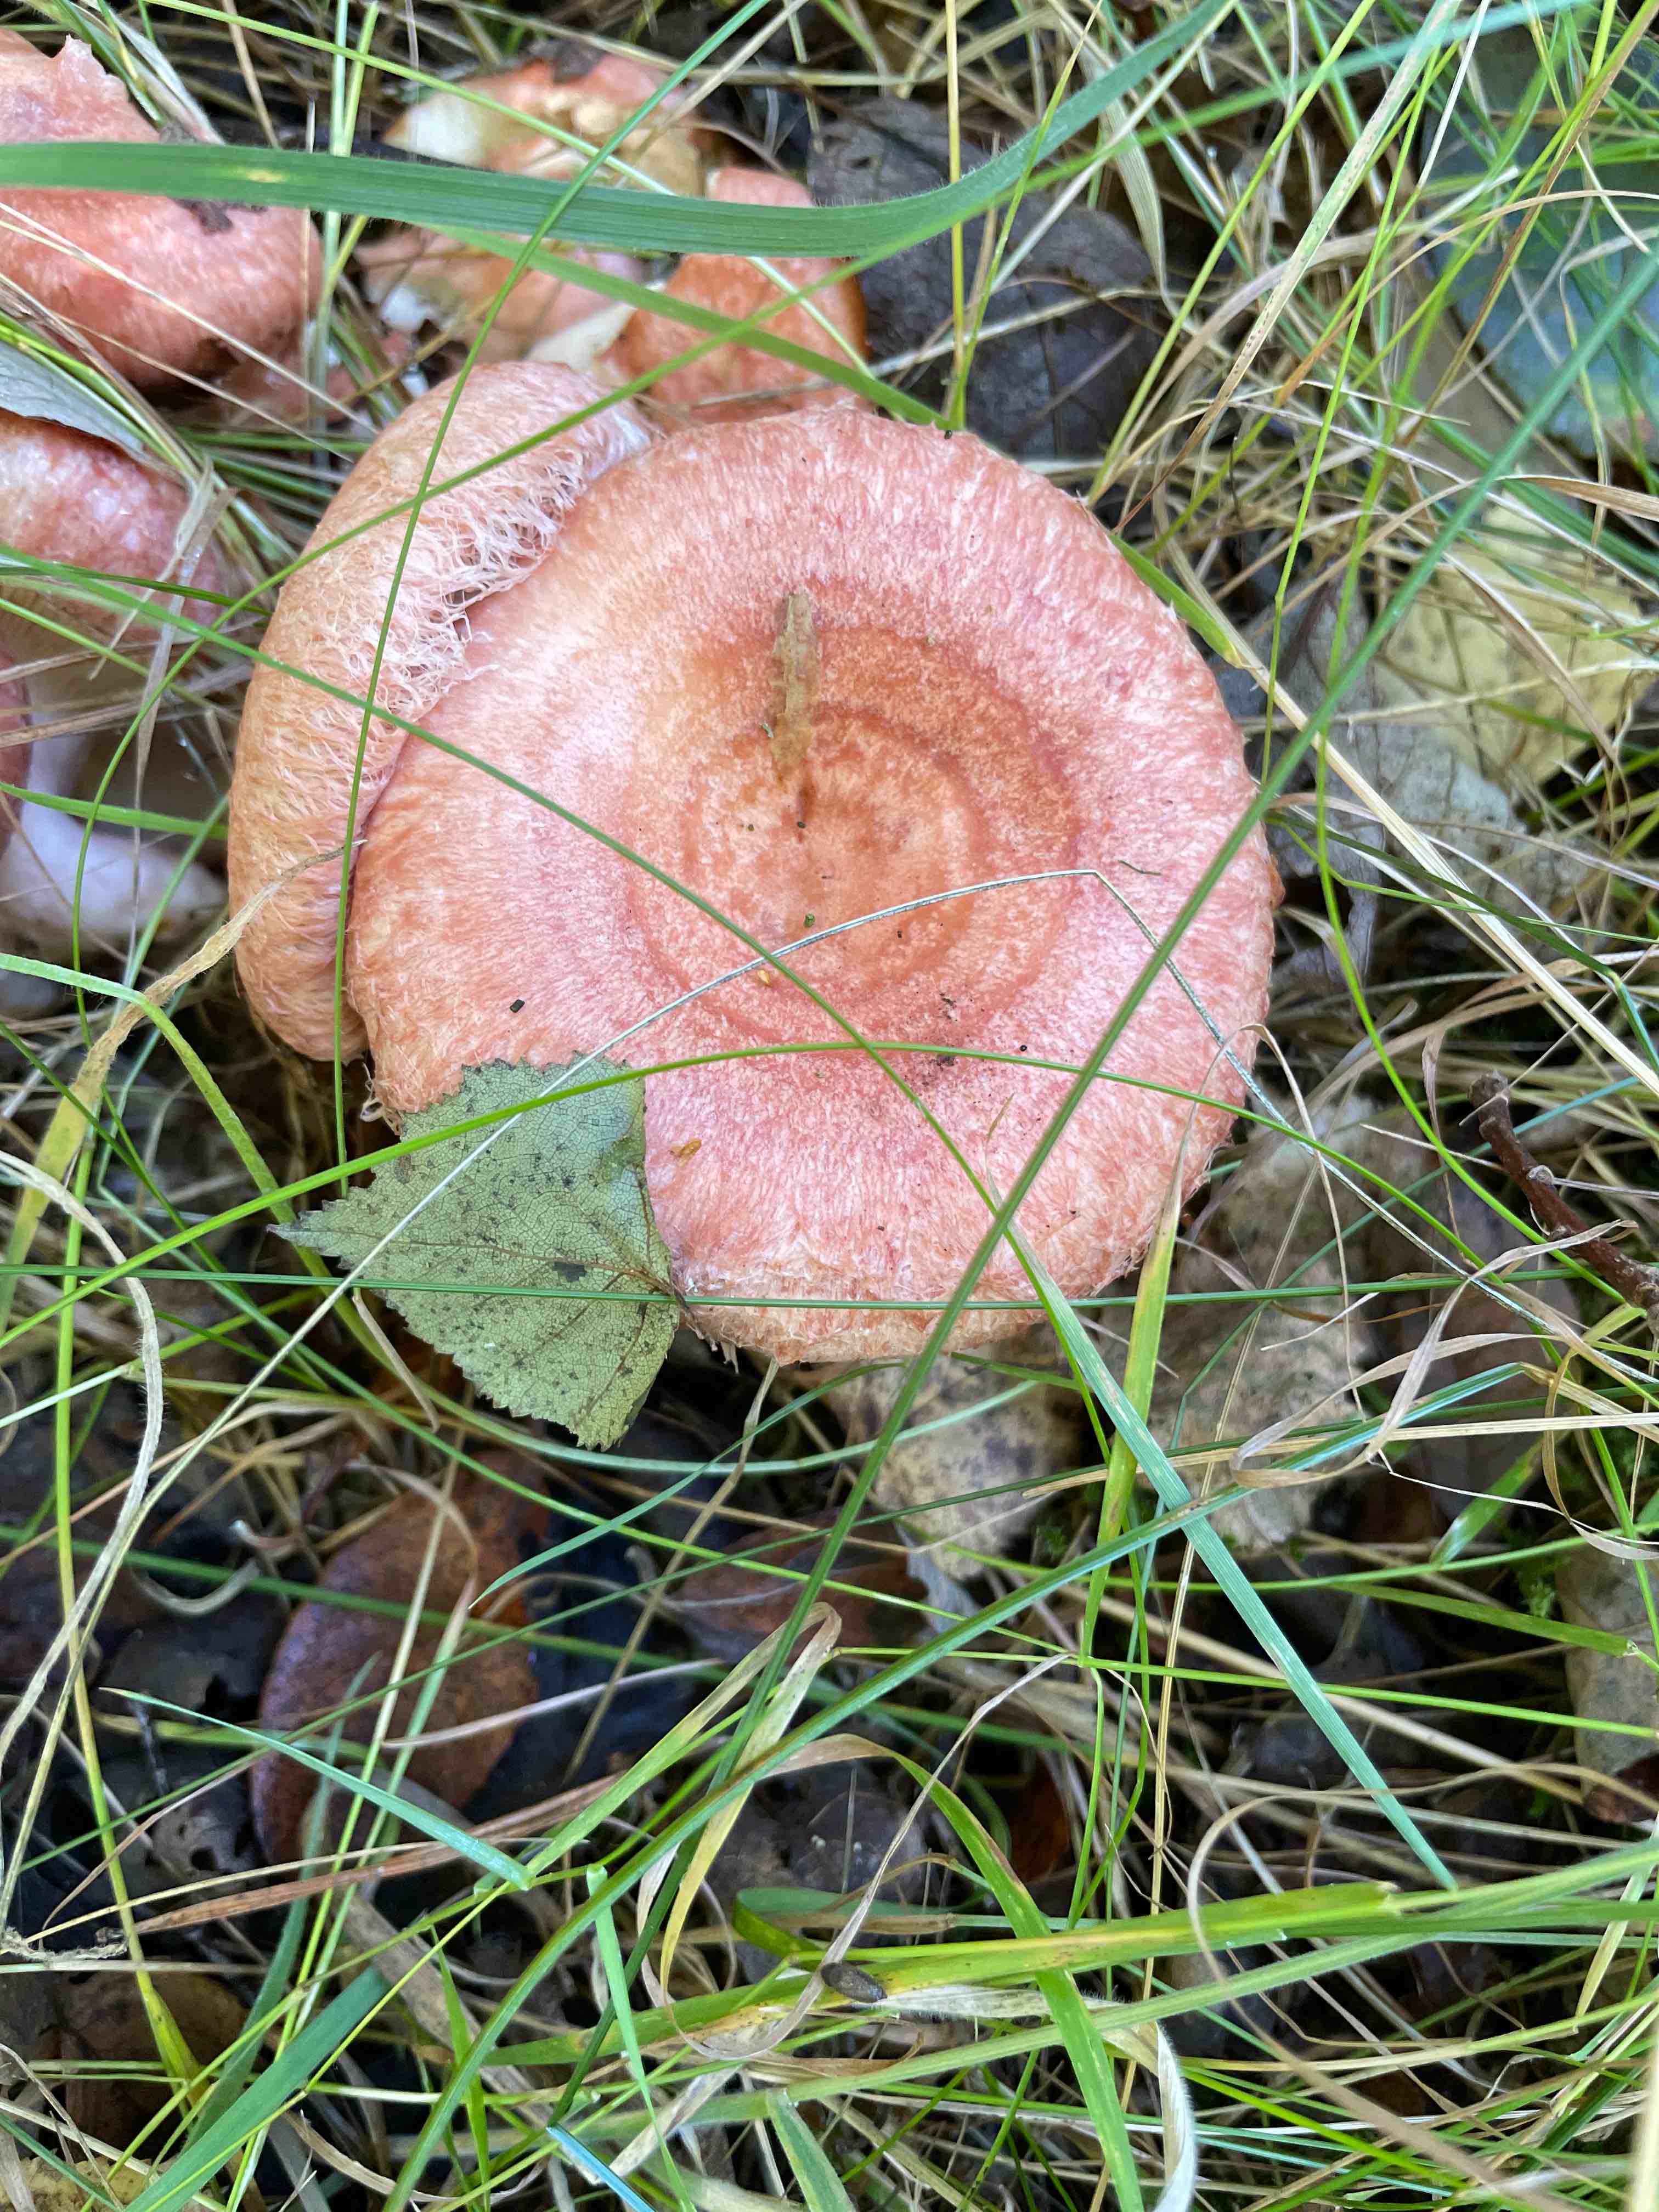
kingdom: Fungi
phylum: Basidiomycota
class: Agaricomycetes
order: Russulales
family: Russulaceae
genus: Lactarius
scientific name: Lactarius torminosus
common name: skægget mælkehat
